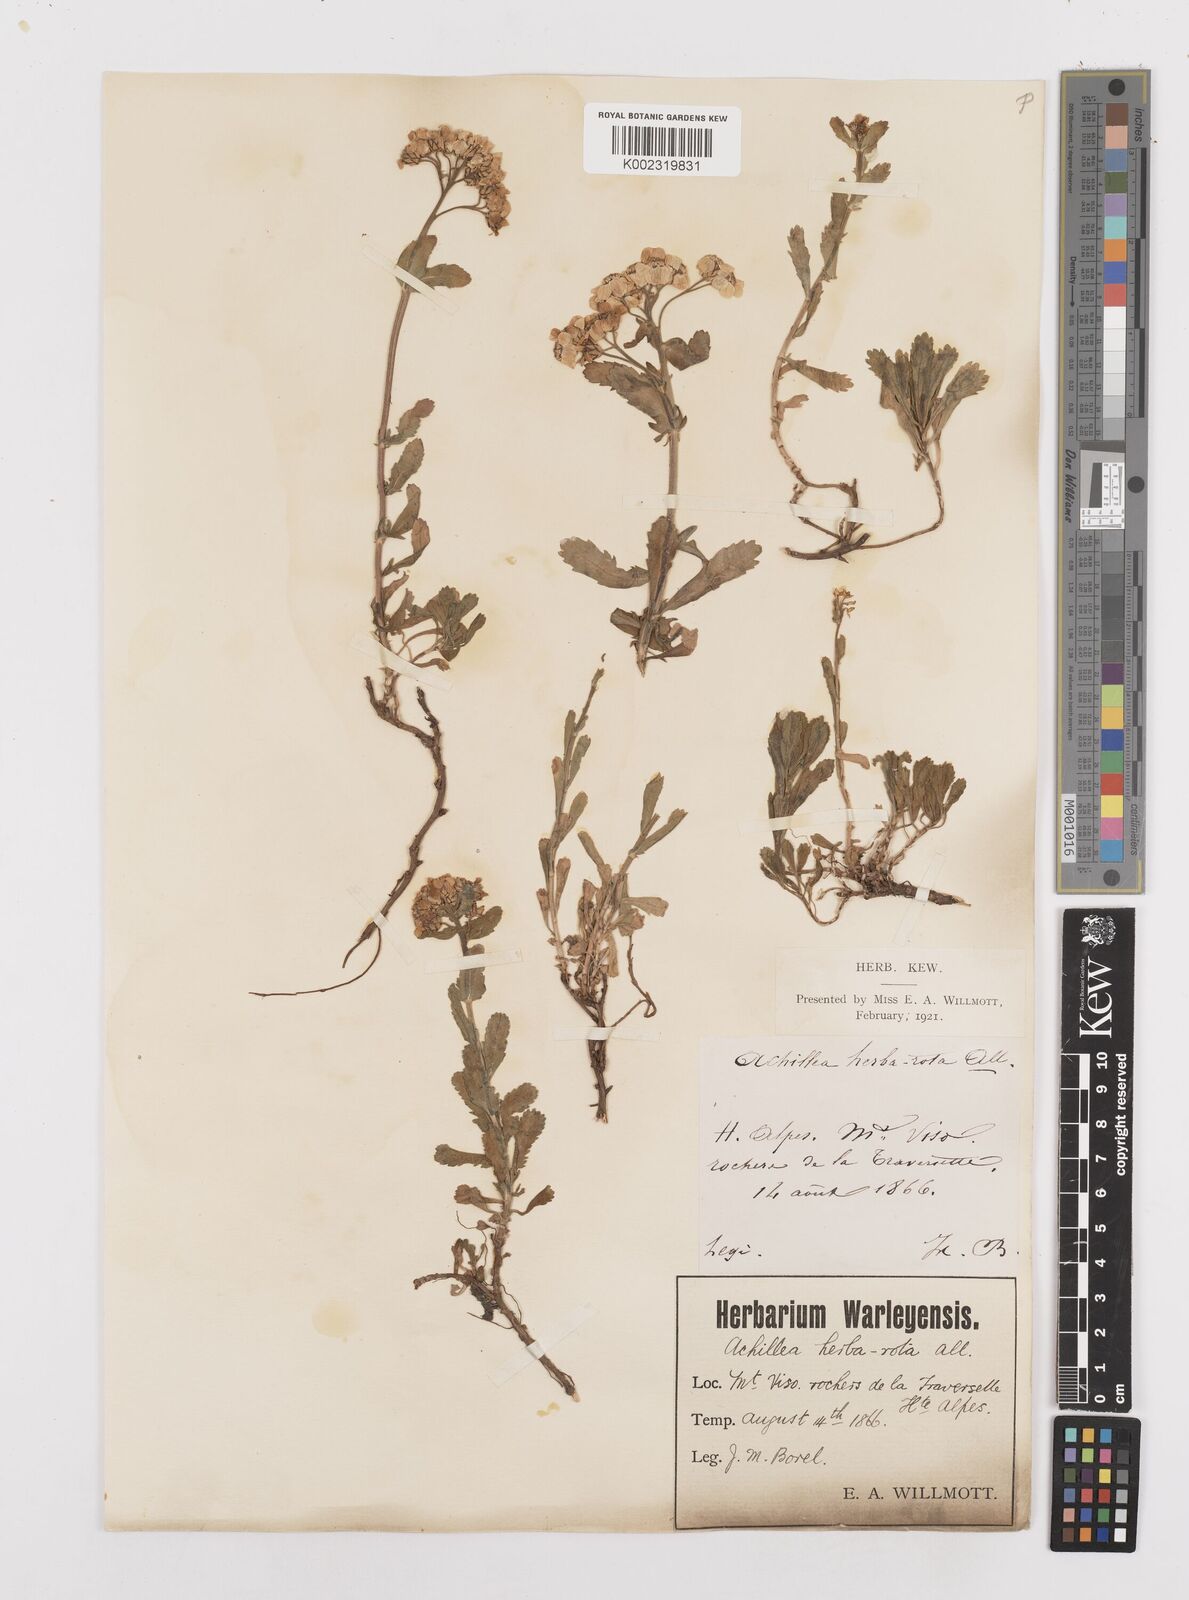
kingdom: Plantae
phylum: Tracheophyta
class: Magnoliopsida
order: Asterales
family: Asteraceae
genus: Achillea
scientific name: Achillea erba-rotta
